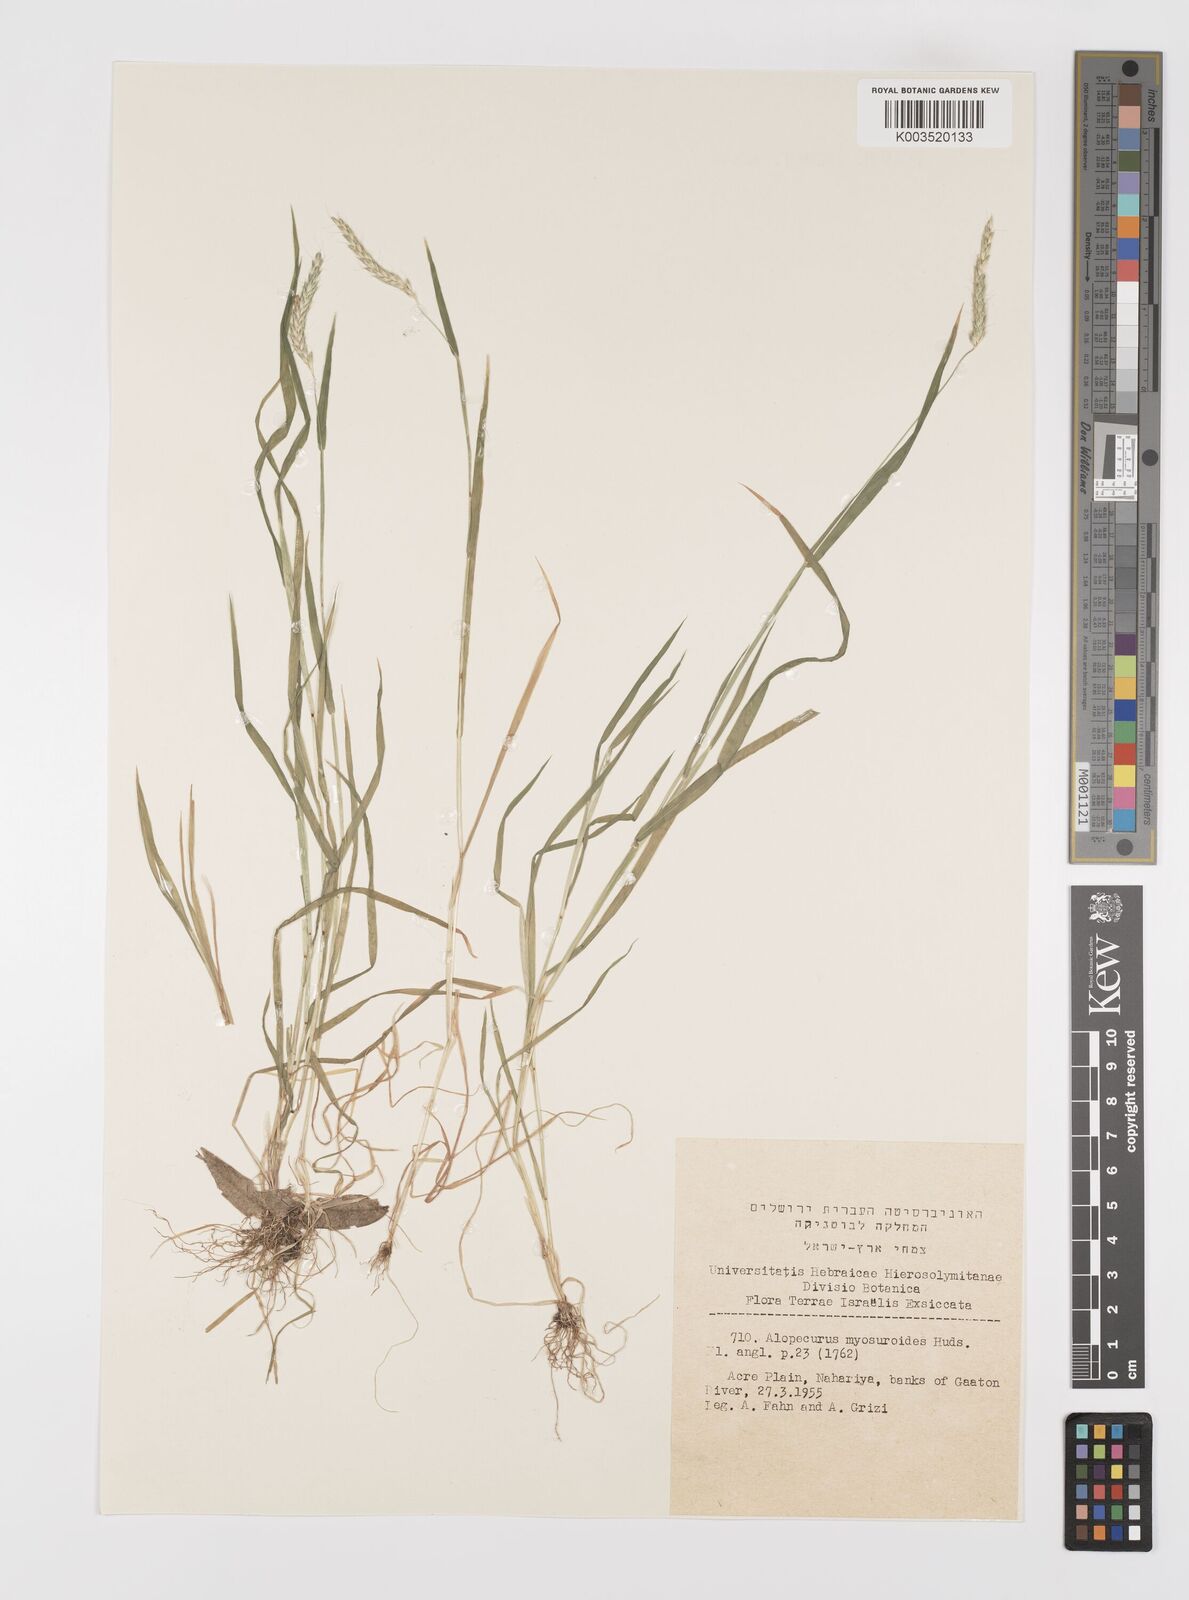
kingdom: Plantae
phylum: Tracheophyta
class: Liliopsida
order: Poales
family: Poaceae
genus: Alopecurus
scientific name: Alopecurus myosuroides
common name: Black-grass
